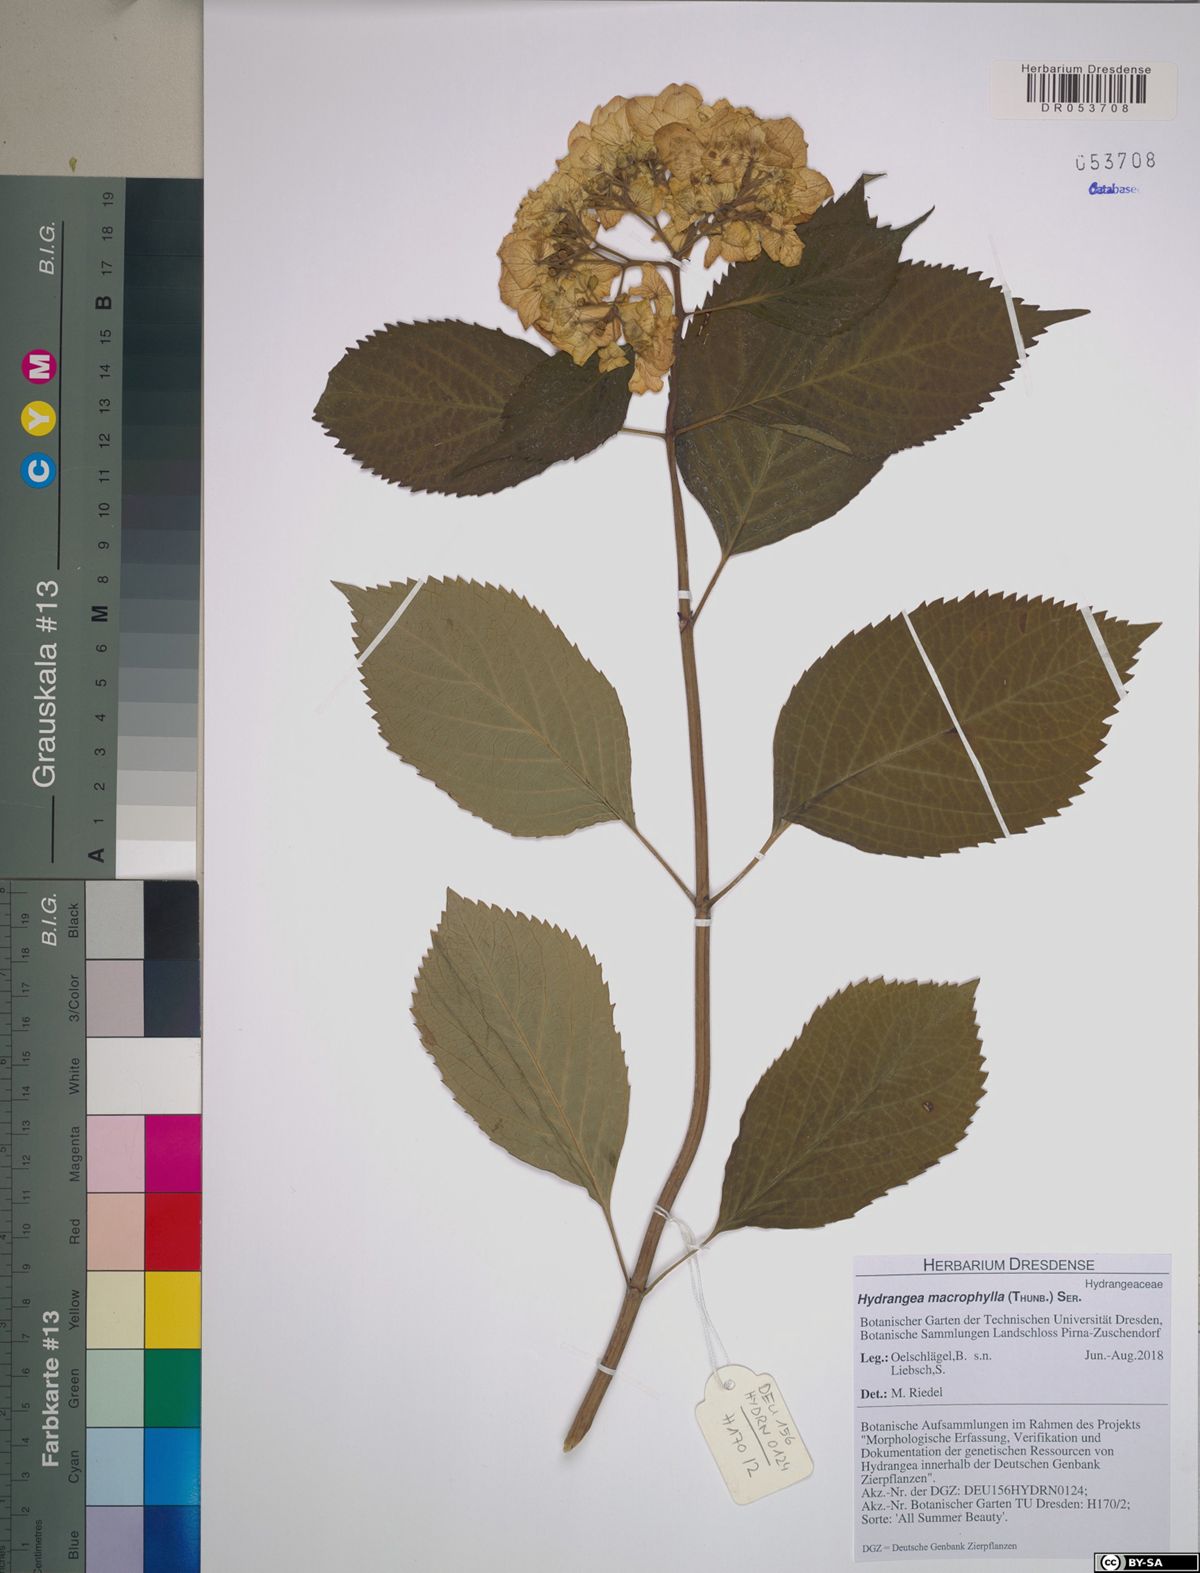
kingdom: Plantae
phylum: Tracheophyta
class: Magnoliopsida
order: Cornales
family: Hydrangeaceae
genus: Hydrangea
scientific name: Hydrangea macrophylla
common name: Hydrangea
